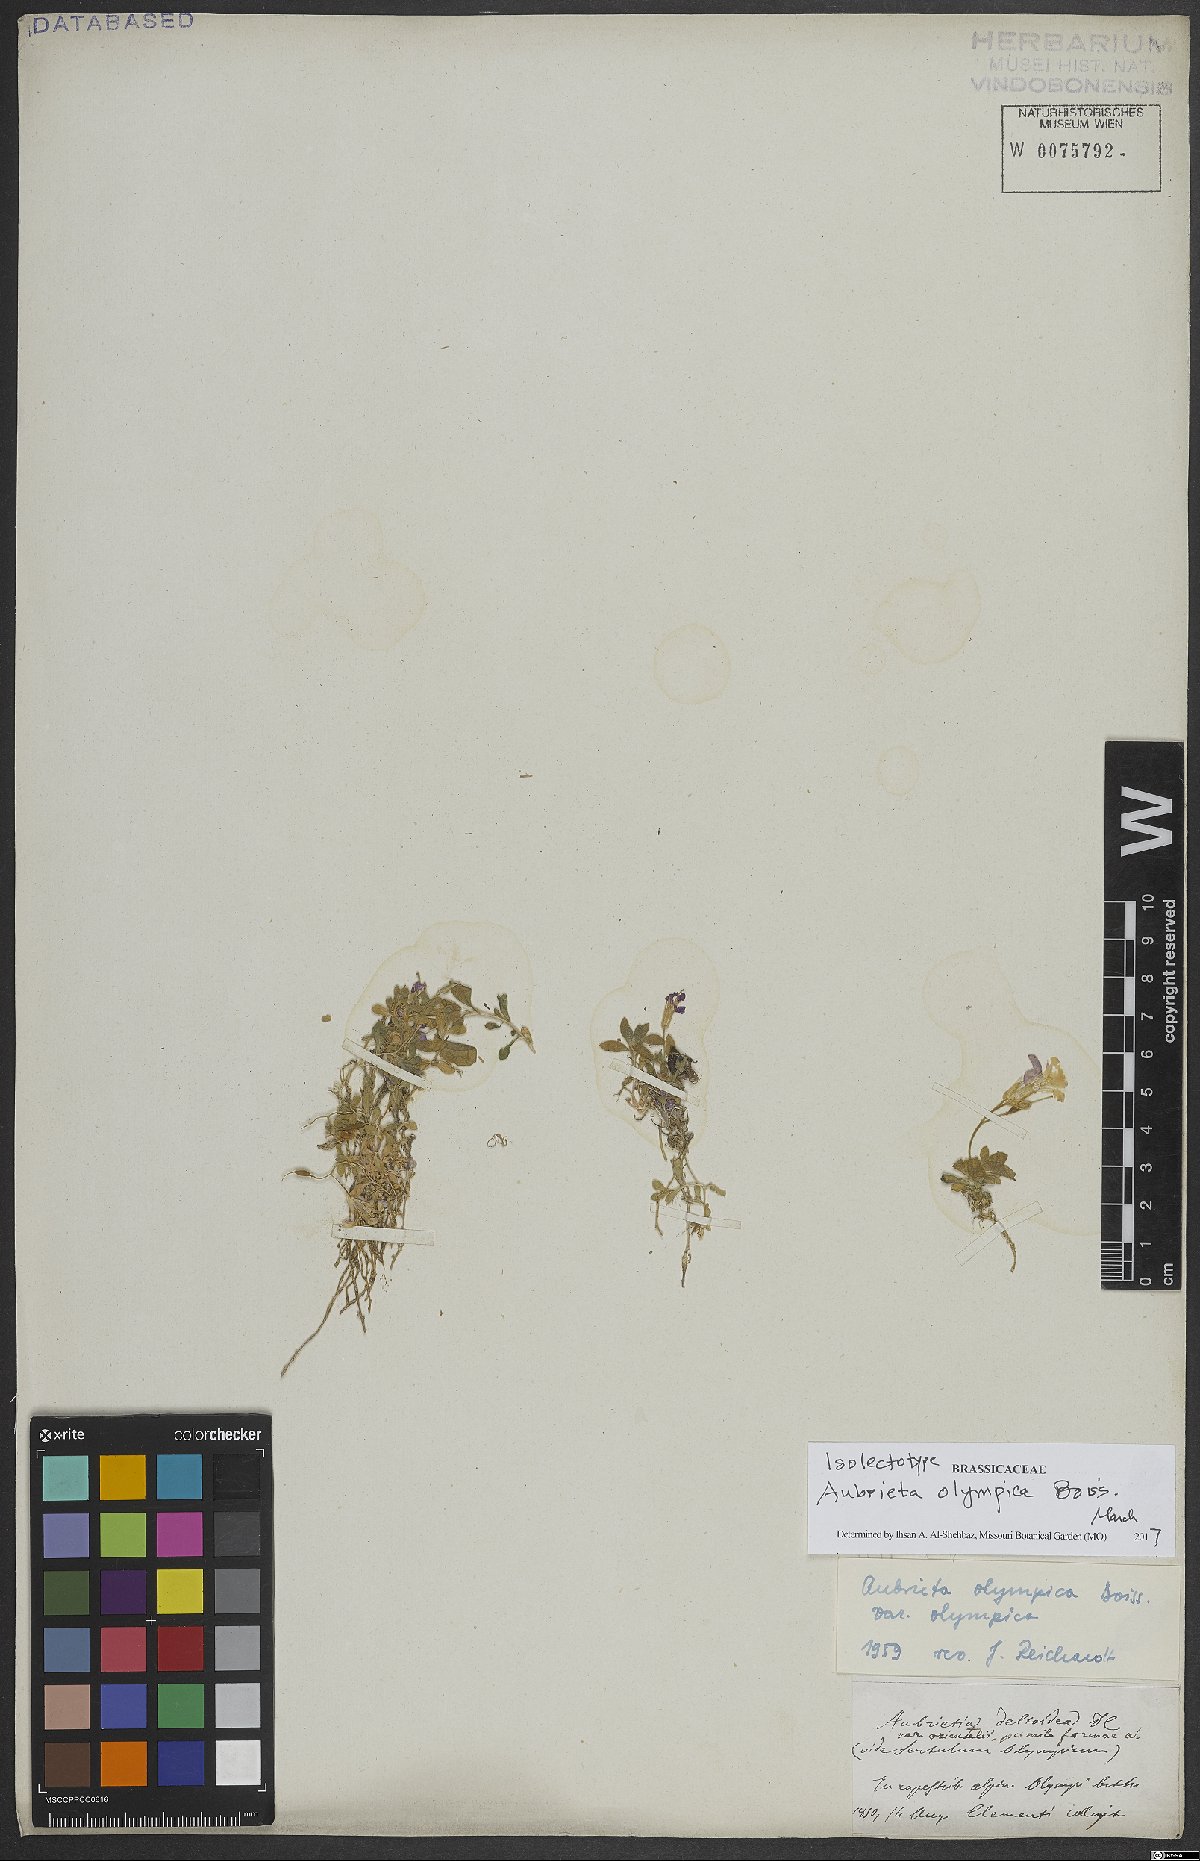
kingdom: Plantae
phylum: Tracheophyta
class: Magnoliopsida
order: Brassicales
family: Brassicaceae
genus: Aubrieta
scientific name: Aubrieta olympica
